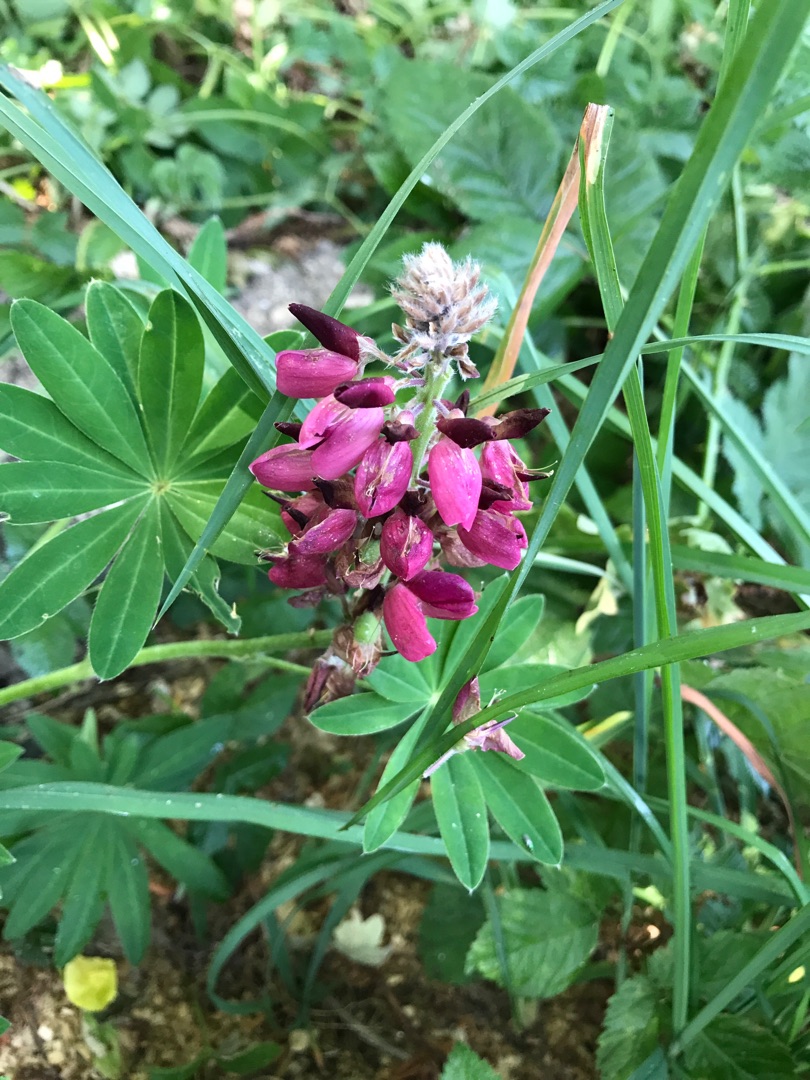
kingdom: Plantae
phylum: Tracheophyta
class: Magnoliopsida
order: Fabales
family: Fabaceae
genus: Lupinus
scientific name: Lupinus polyphyllus
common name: Mangebladet lupin
